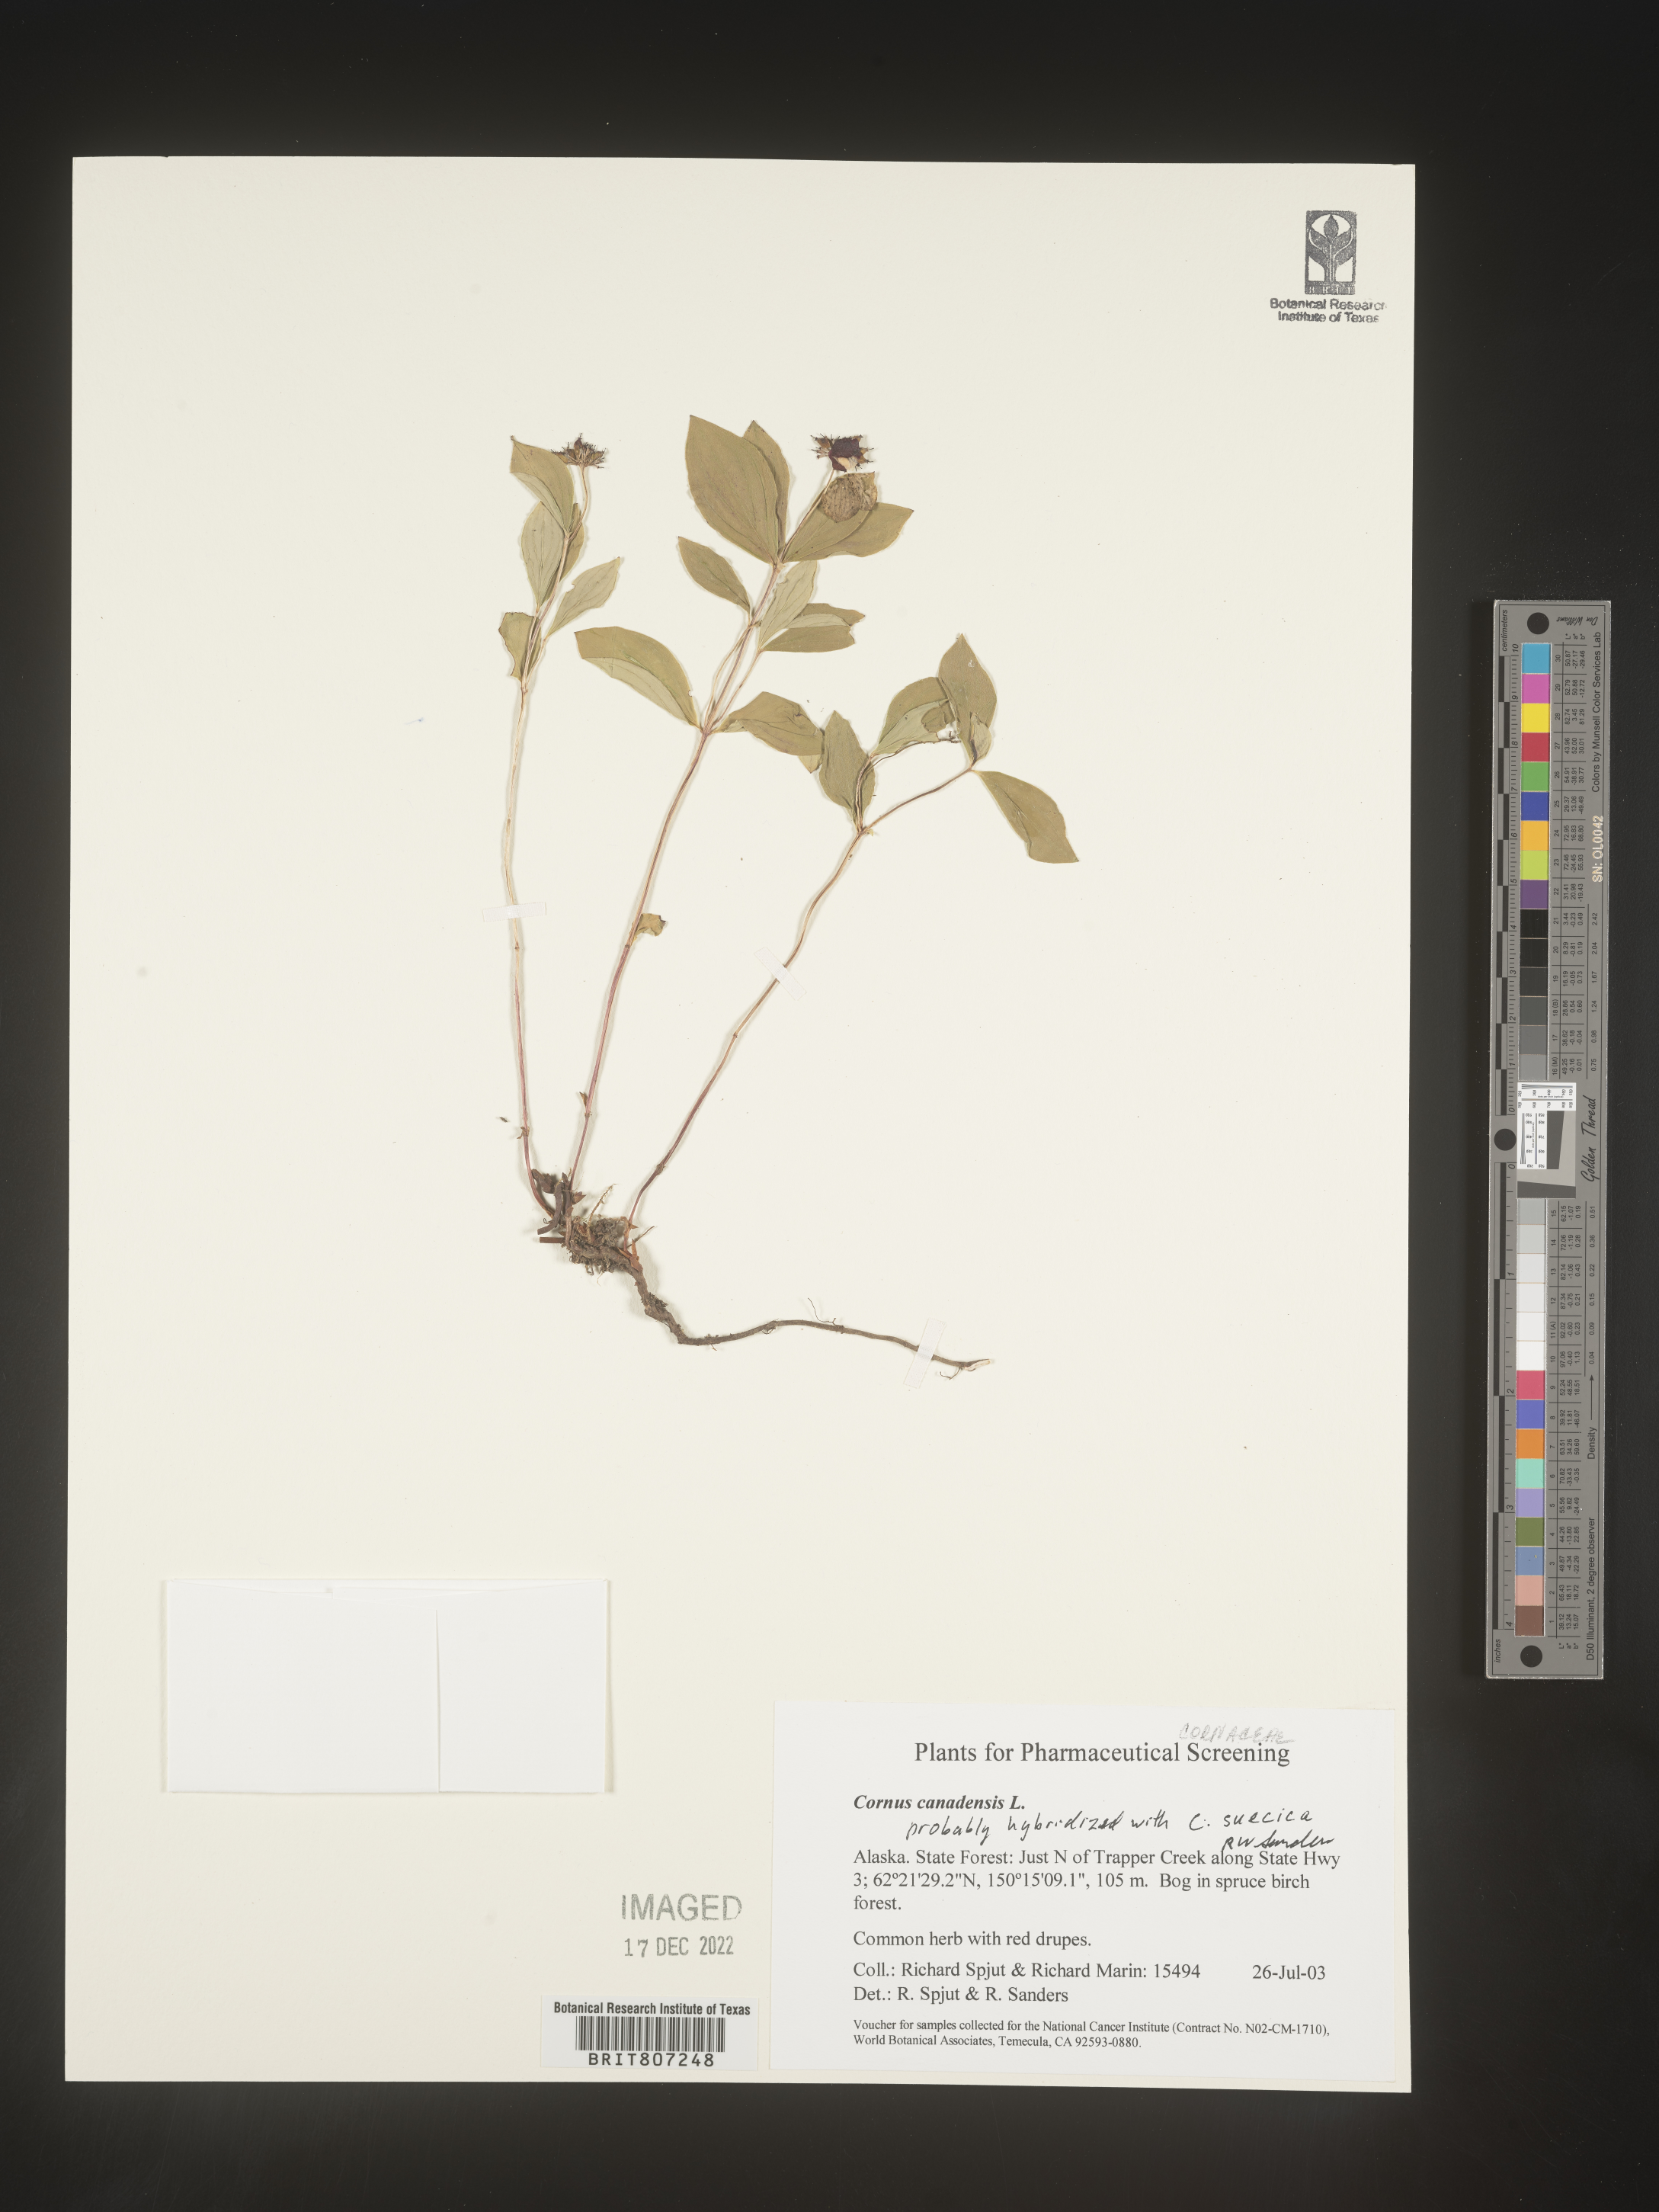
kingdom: Plantae
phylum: Tracheophyta
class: Magnoliopsida
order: Cornales
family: Cornaceae
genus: Cornus
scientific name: Cornus canadensis
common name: Creeping dogwood
